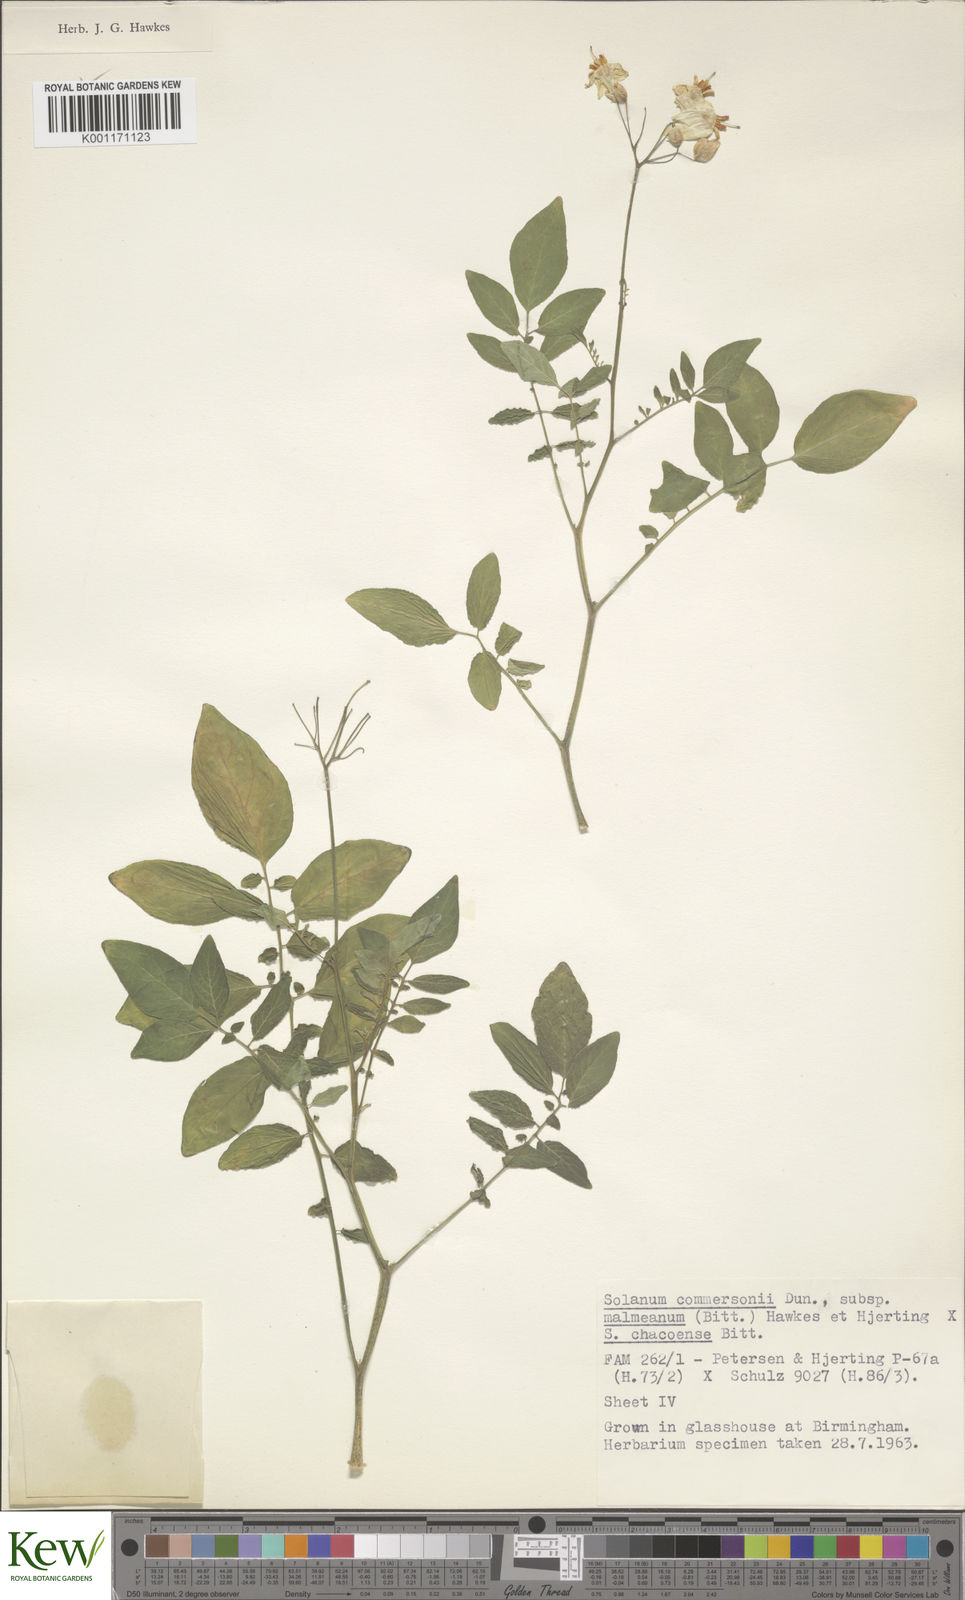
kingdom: Plantae
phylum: Tracheophyta
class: Magnoliopsida
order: Solanales
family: Solanaceae
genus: Solanum
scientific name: Solanum malmeanum
